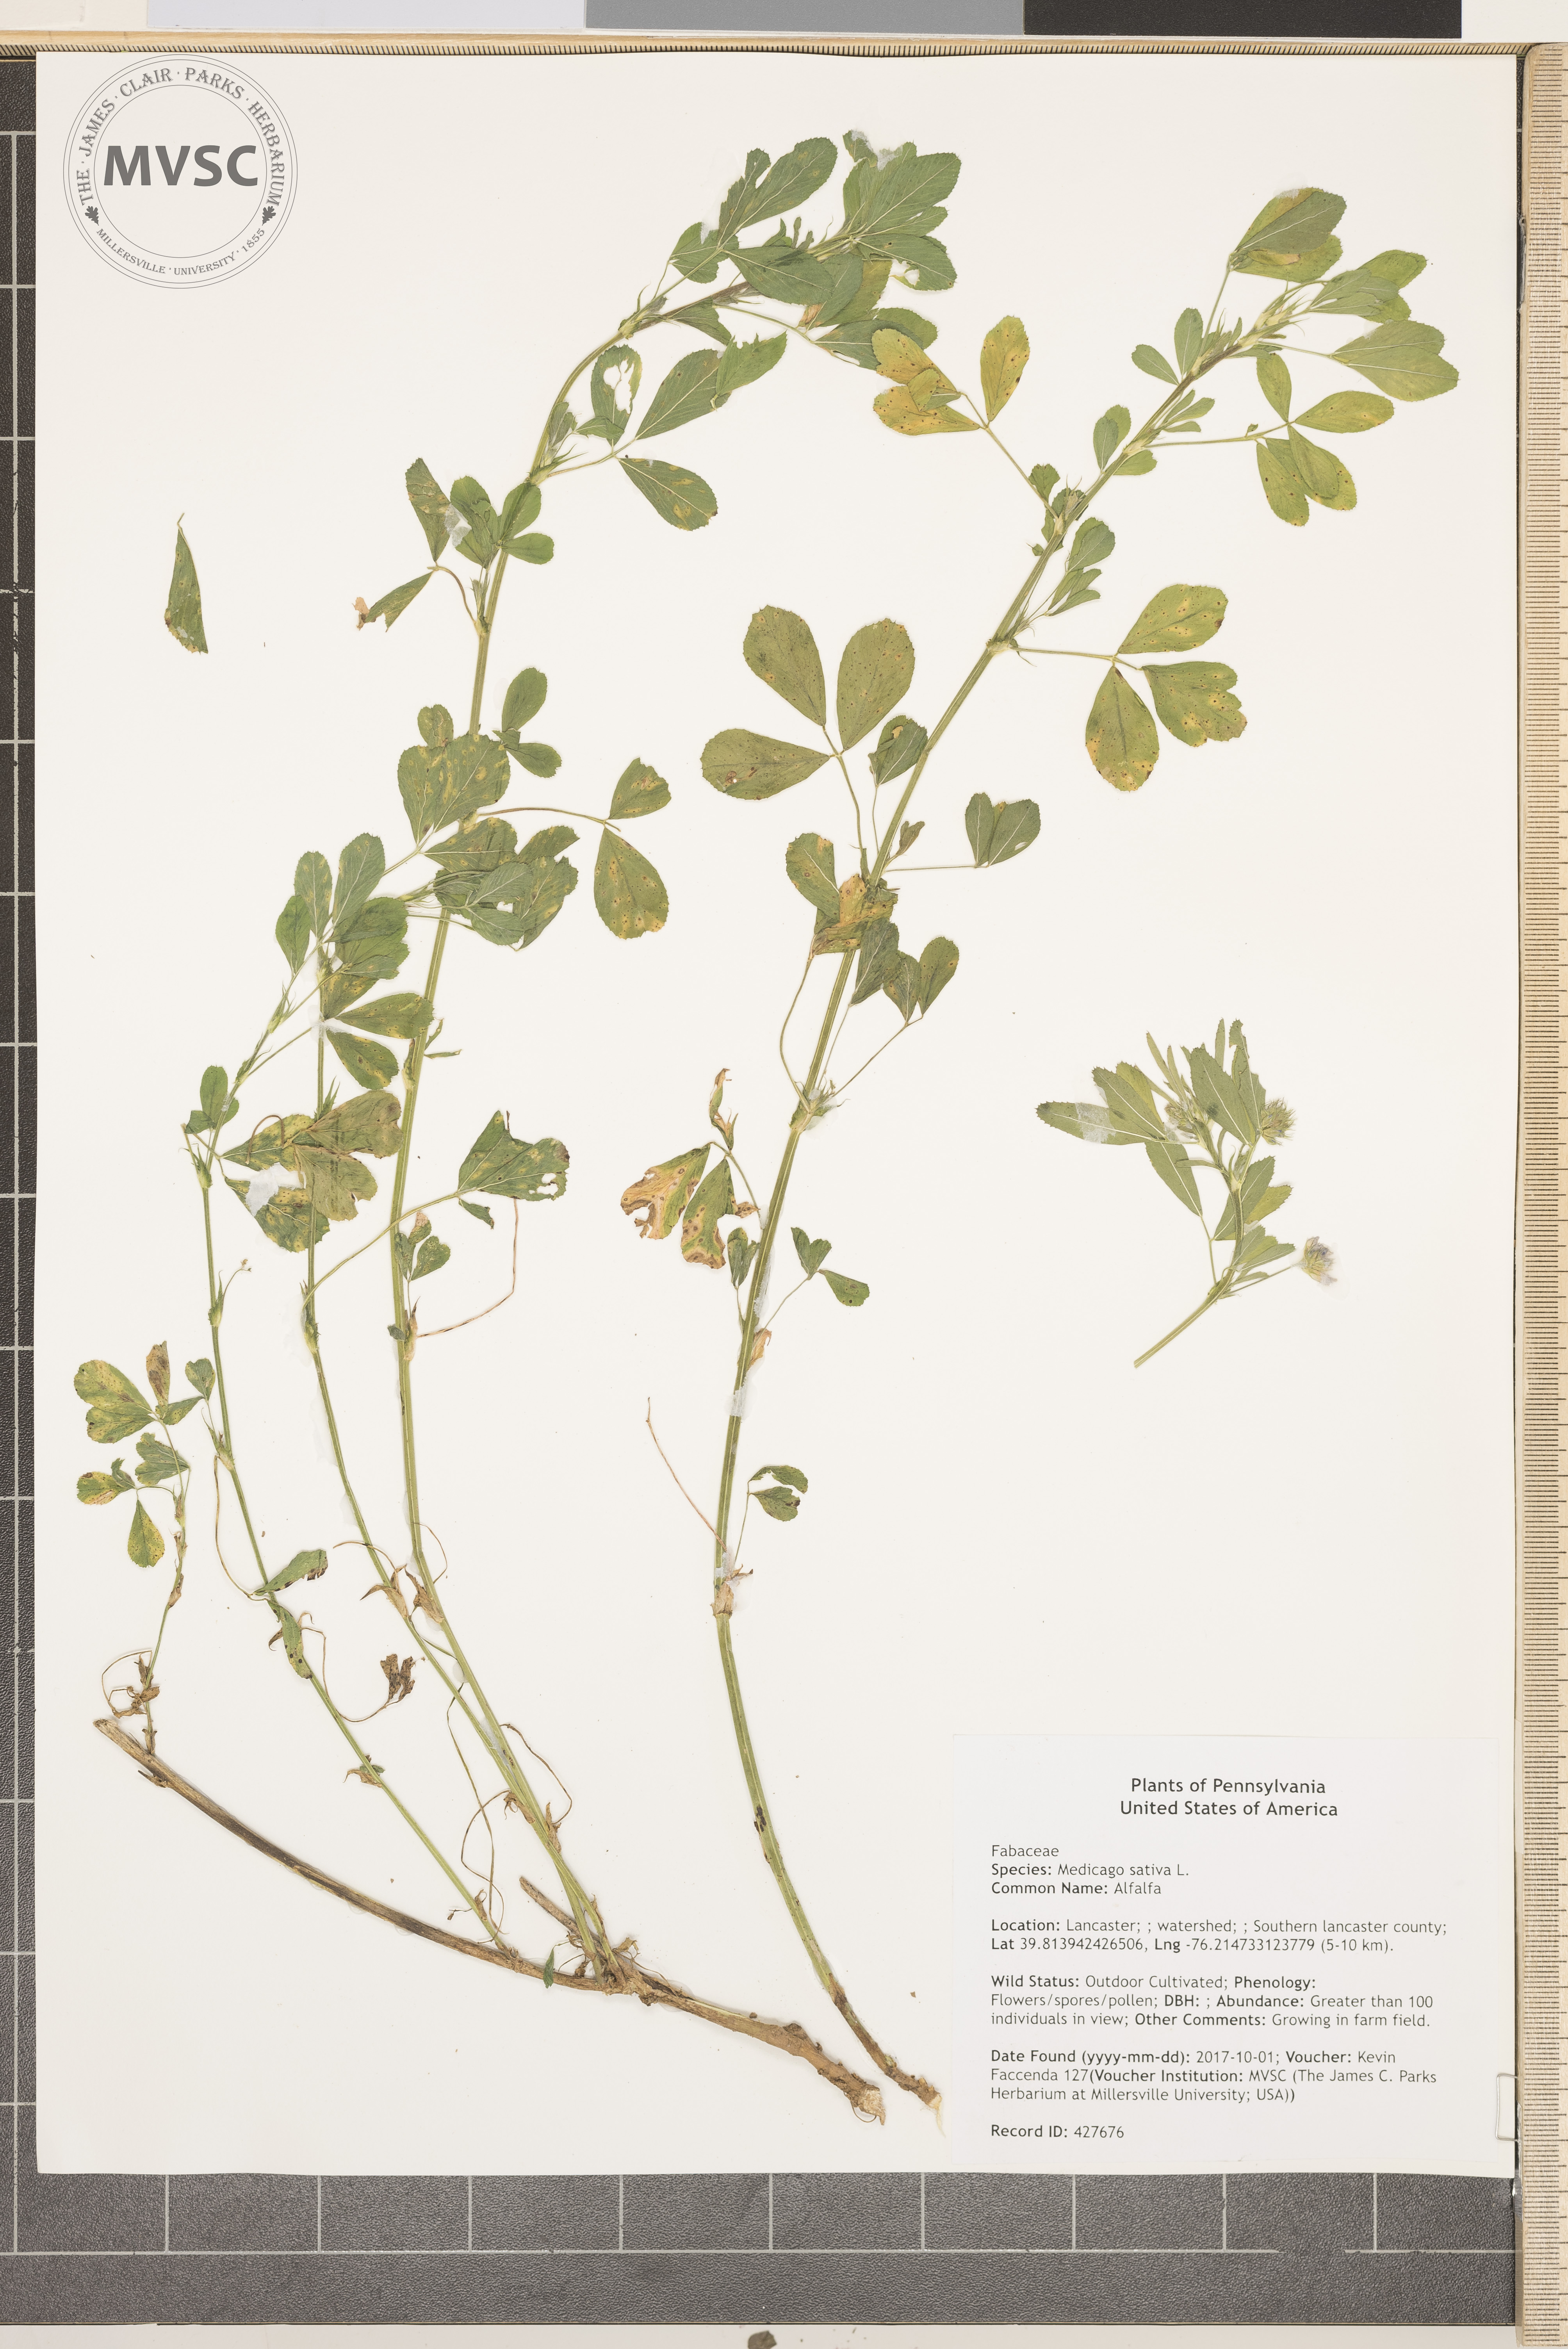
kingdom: Plantae
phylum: Tracheophyta
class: Magnoliopsida
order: Fabales
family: Fabaceae
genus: Medicago
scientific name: Medicago sativa
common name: Alfalfa
